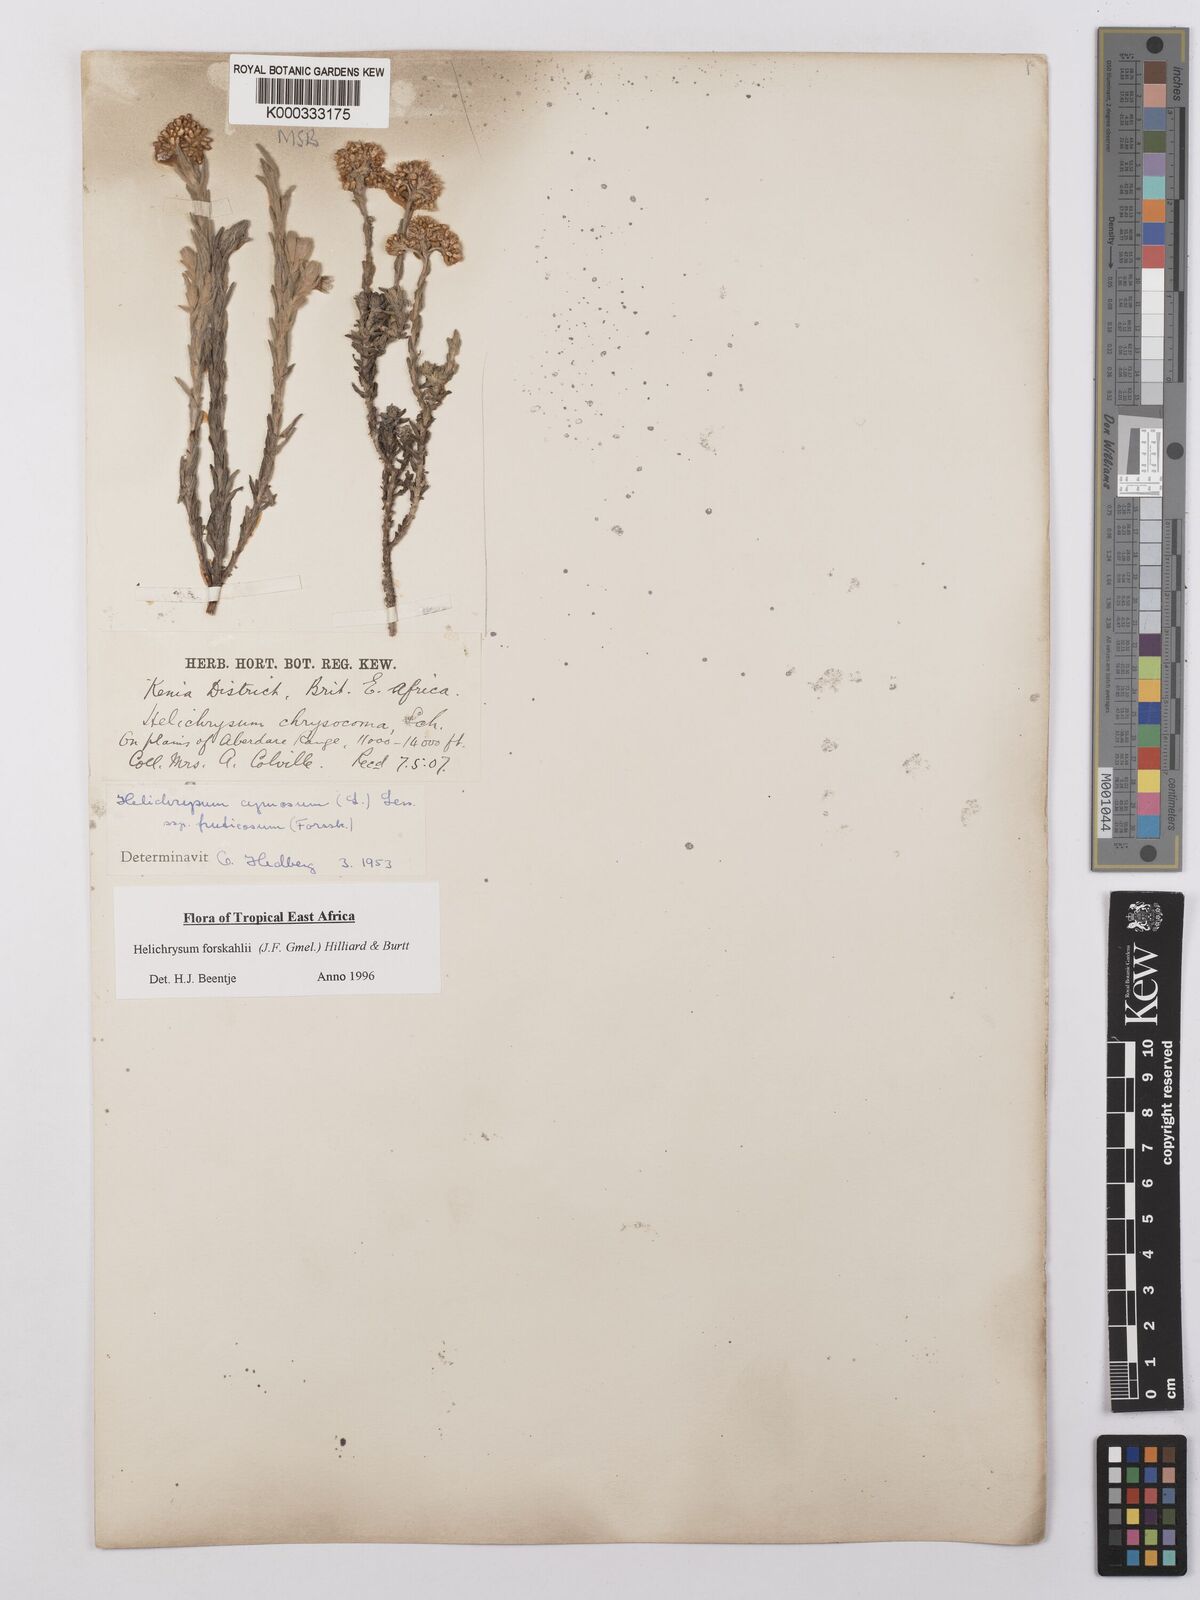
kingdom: Plantae
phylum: Tracheophyta
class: Magnoliopsida
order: Asterales
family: Asteraceae
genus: Helichrysum
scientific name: Helichrysum forskahlii
